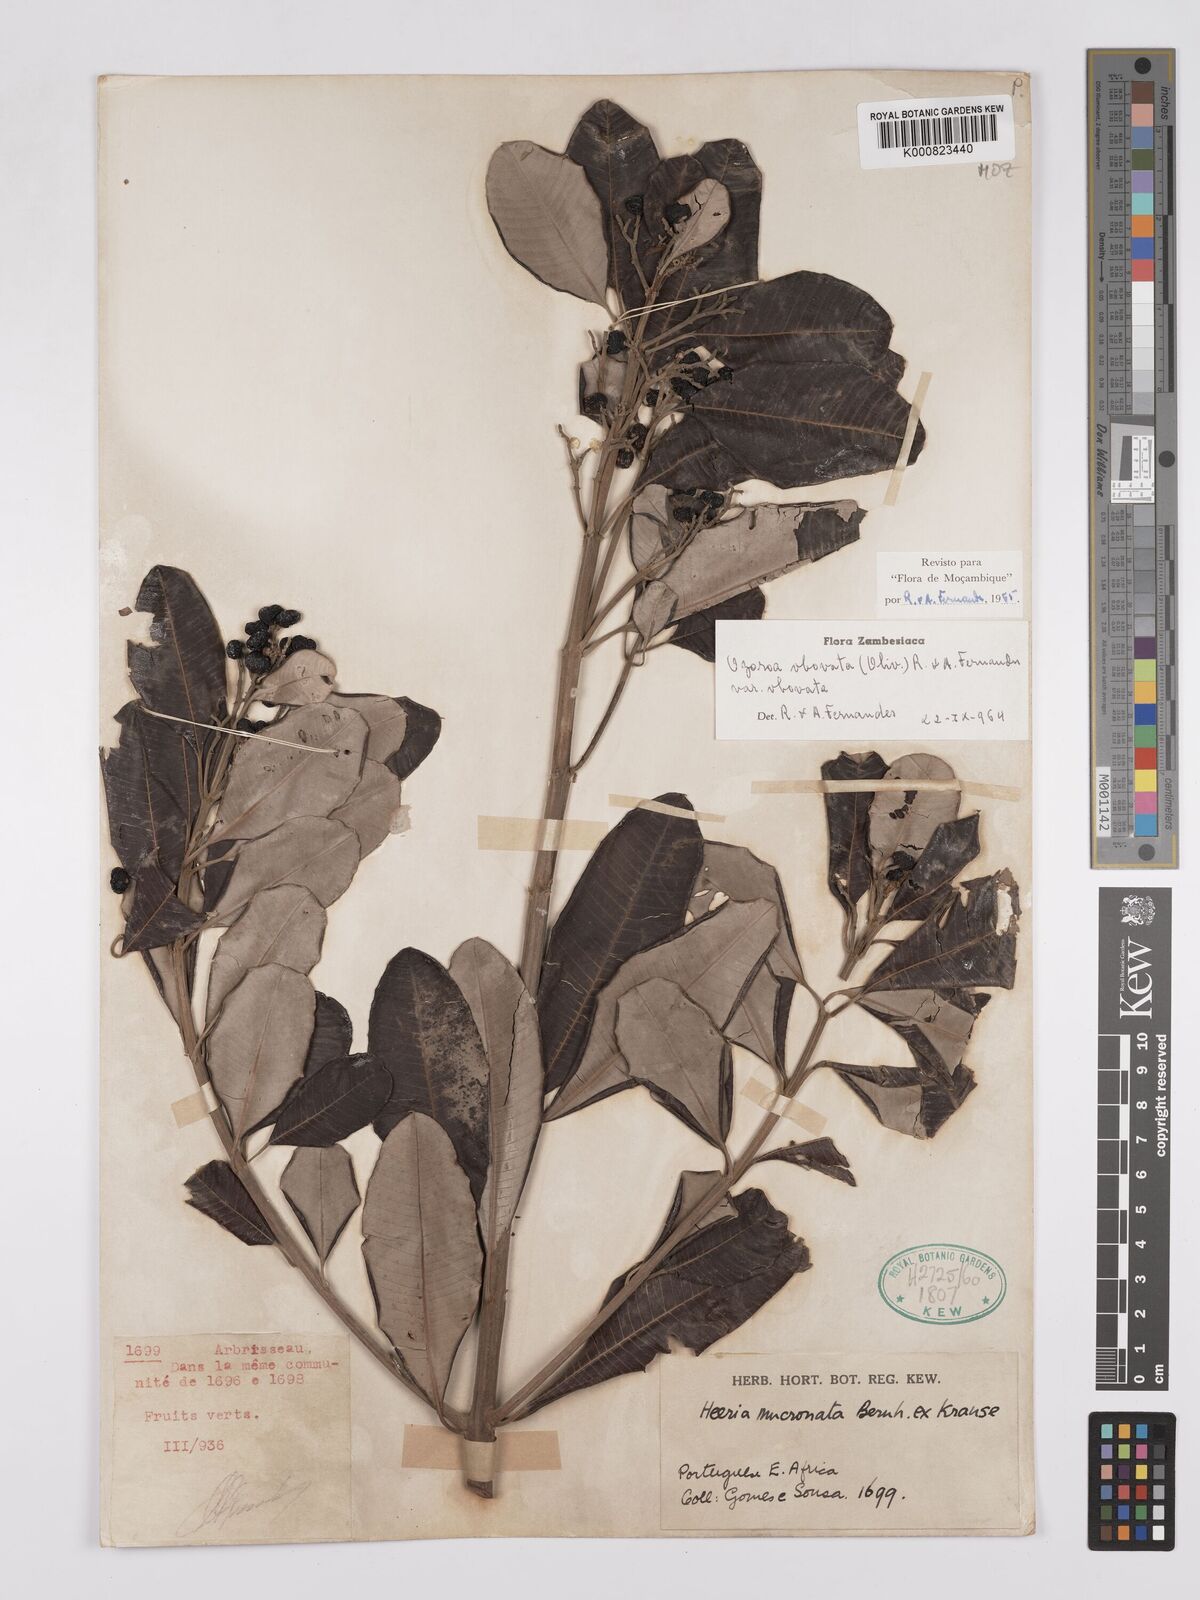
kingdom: Plantae
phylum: Tracheophyta
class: Magnoliopsida
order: Sapindales
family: Anacardiaceae
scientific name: Anacardiaceae
